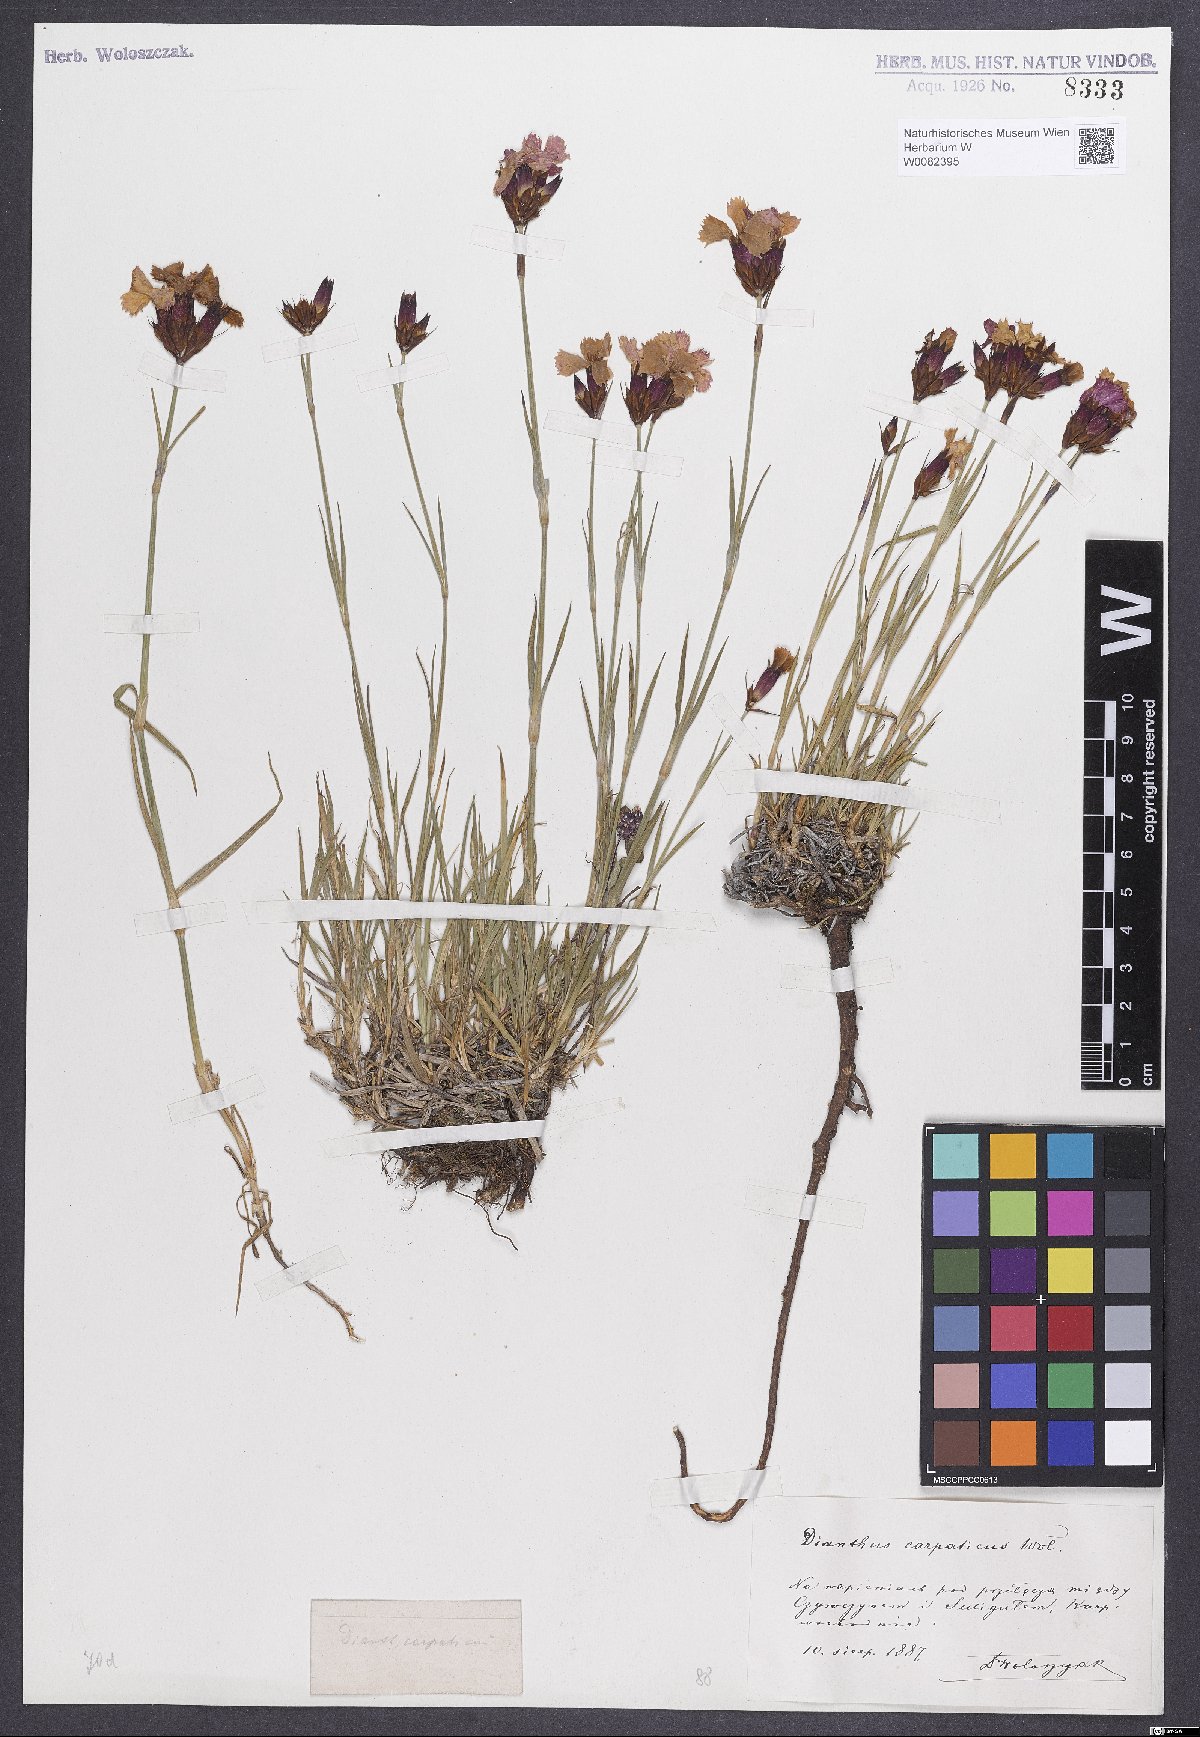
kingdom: Plantae
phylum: Tracheophyta
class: Magnoliopsida
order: Caryophyllales
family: Caryophyllaceae
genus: Dianthus
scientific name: Dianthus carthusianorum
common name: Carthusian pink
